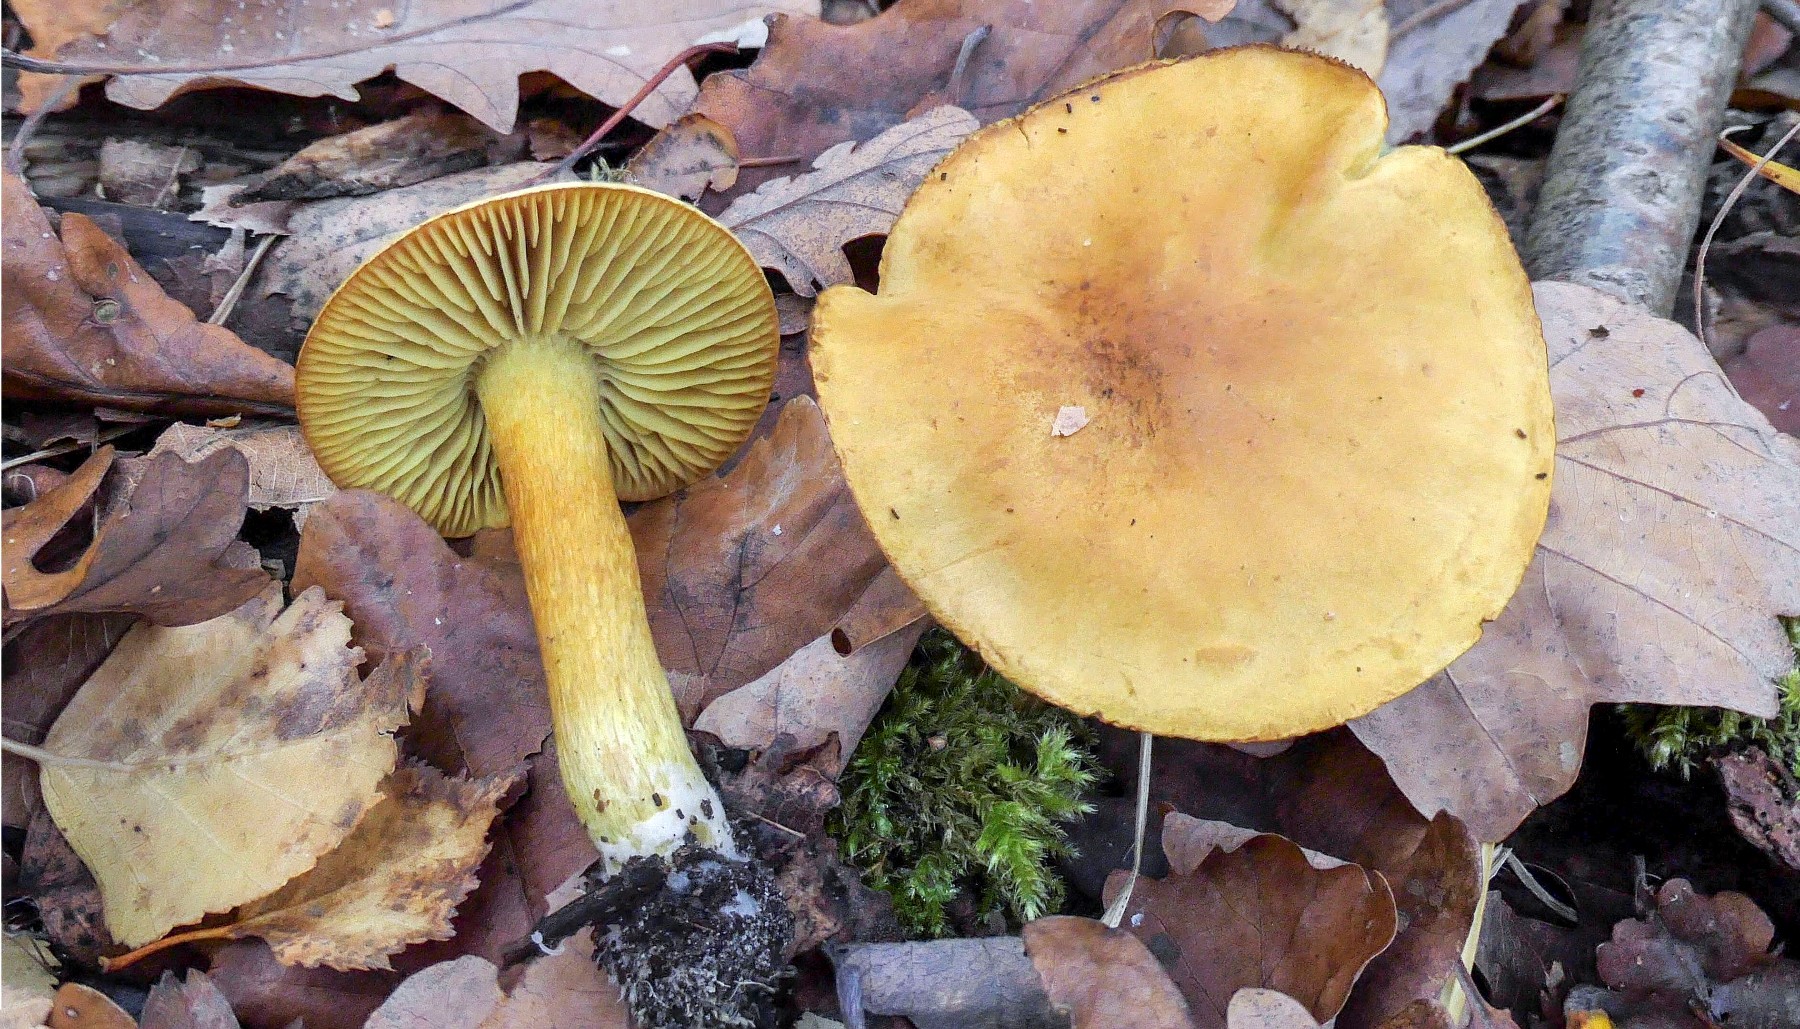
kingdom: Fungi
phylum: Basidiomycota
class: Agaricomycetes
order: Agaricales
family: Tricholomataceae
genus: Tricholoma
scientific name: Tricholoma sulphureum
